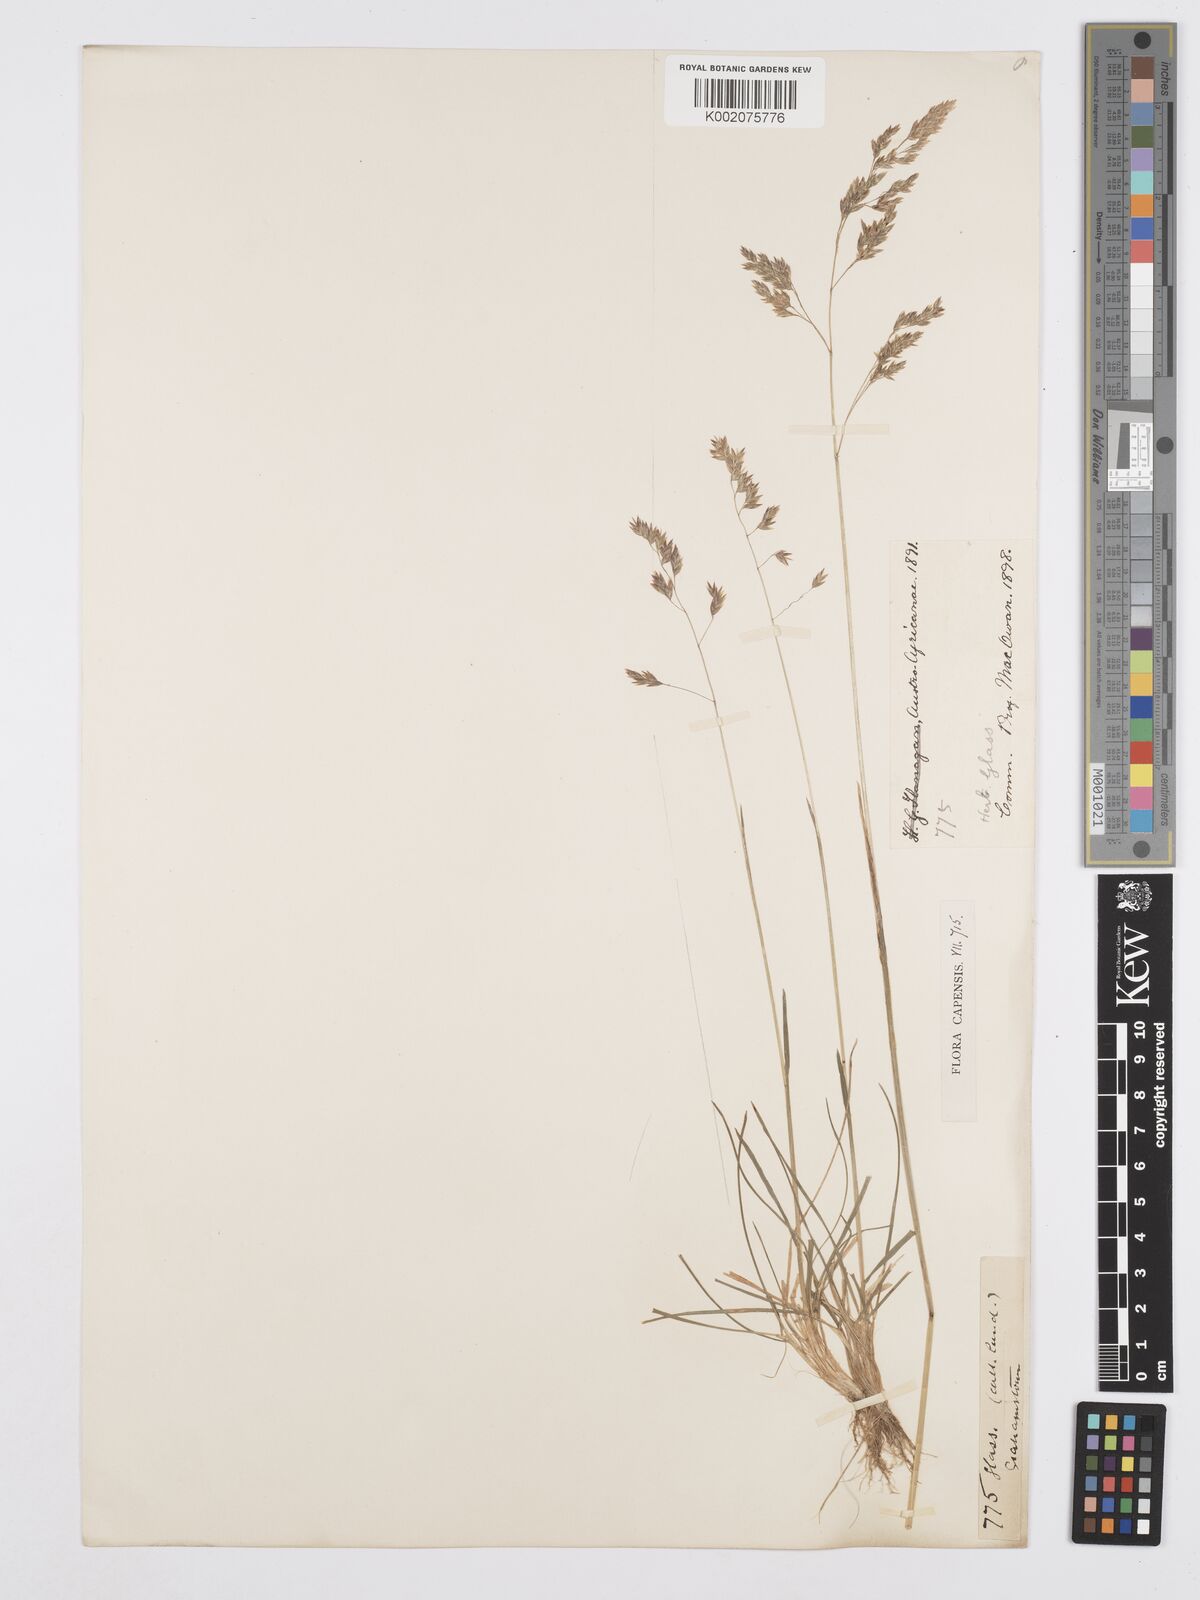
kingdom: Plantae
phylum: Tracheophyta
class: Liliopsida
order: Poales
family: Poaceae
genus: Poa
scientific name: Poa binata
